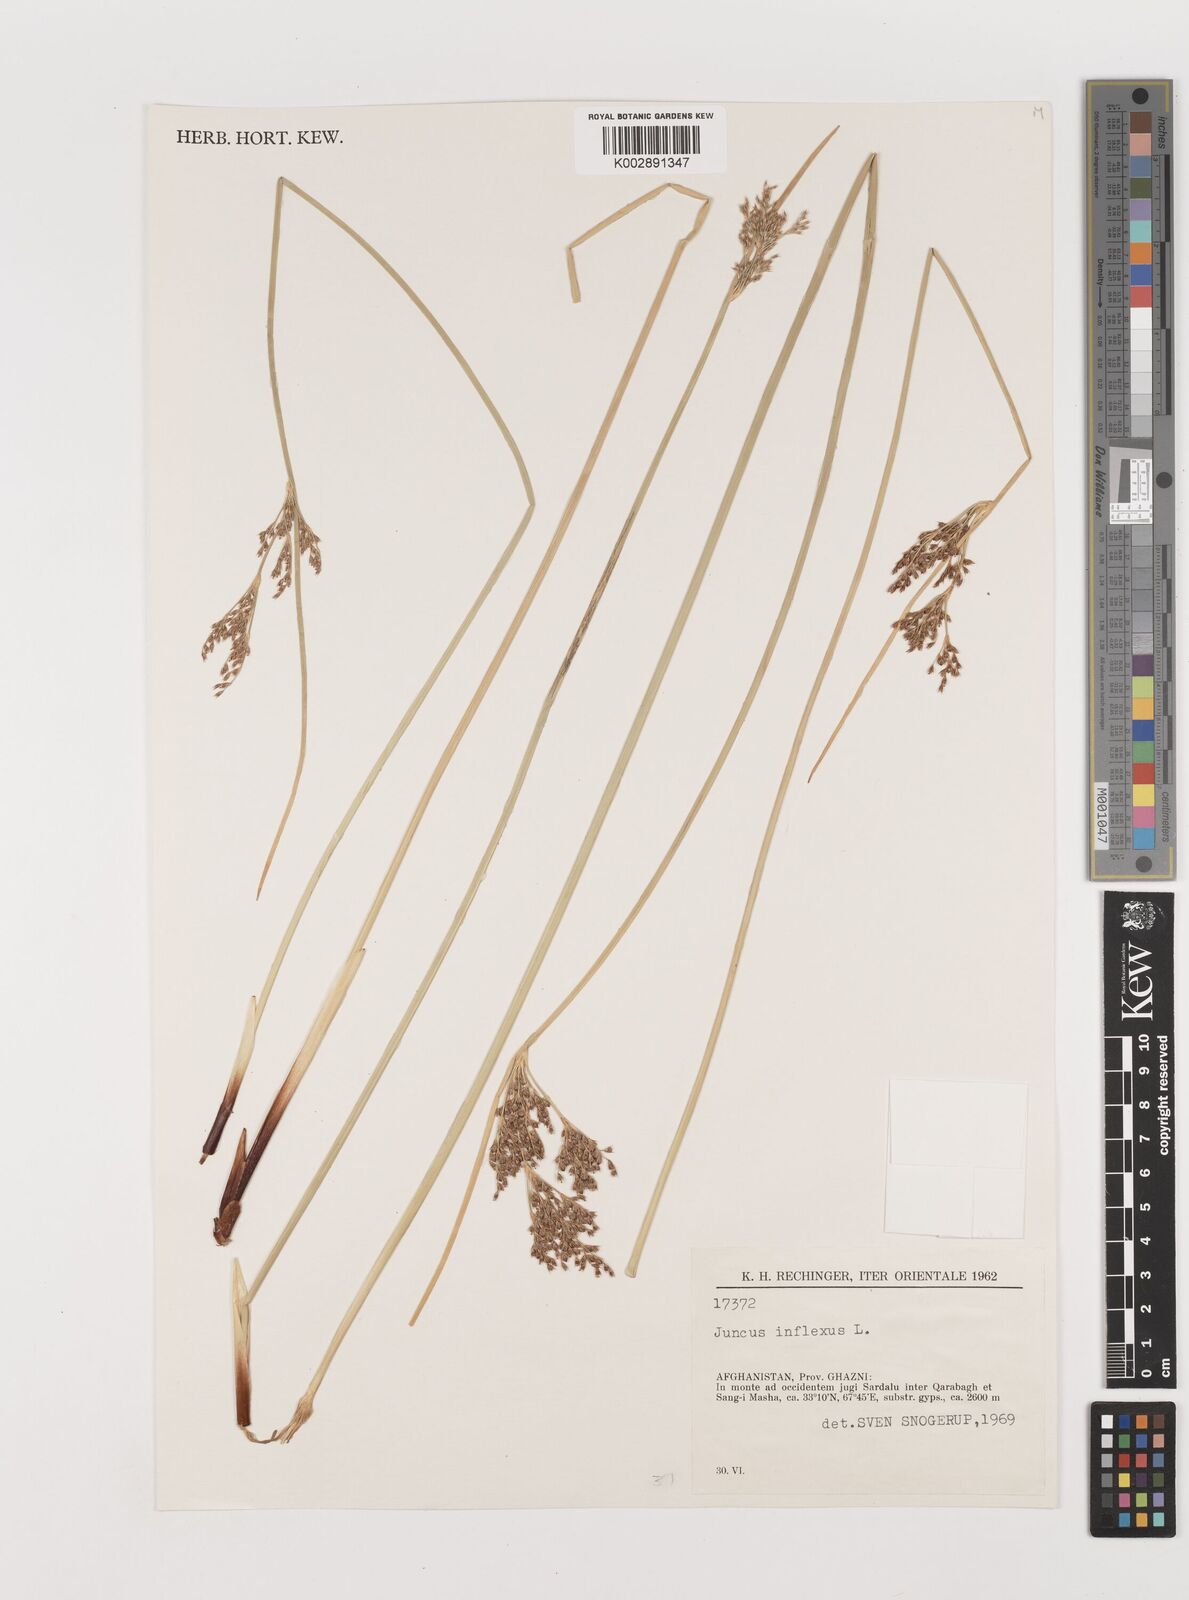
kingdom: Plantae
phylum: Tracheophyta
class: Liliopsida
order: Poales
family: Juncaceae
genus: Juncus
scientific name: Juncus inflexus
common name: Hard rush
